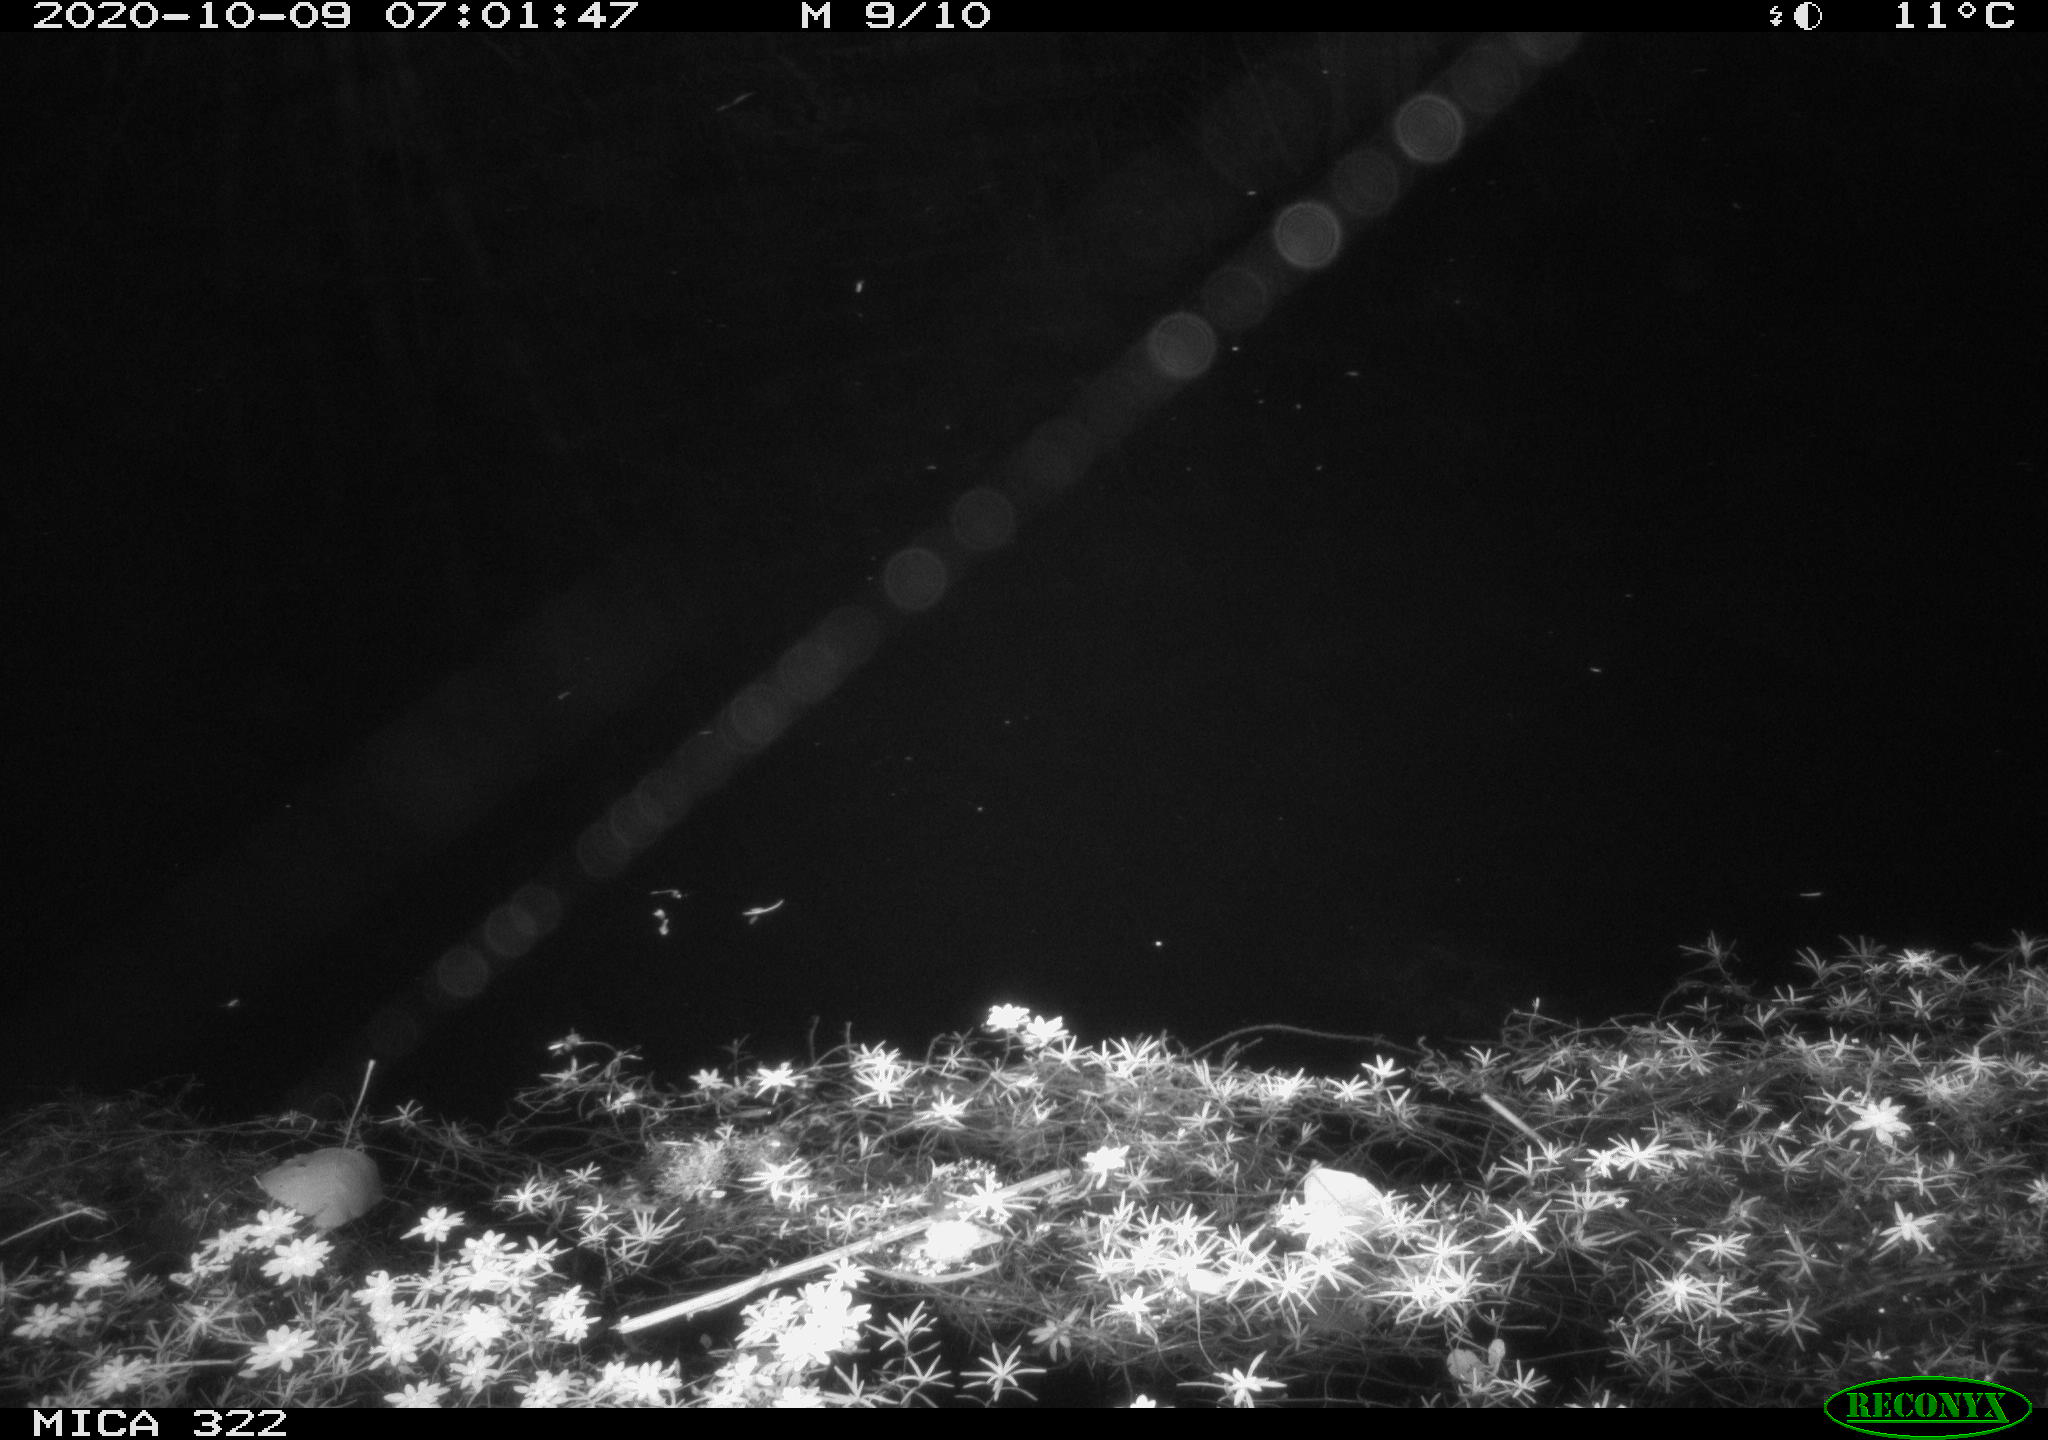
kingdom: Animalia
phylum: Chordata
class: Mammalia
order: Rodentia
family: Muridae
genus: Rattus
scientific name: Rattus norvegicus
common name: Brown rat
